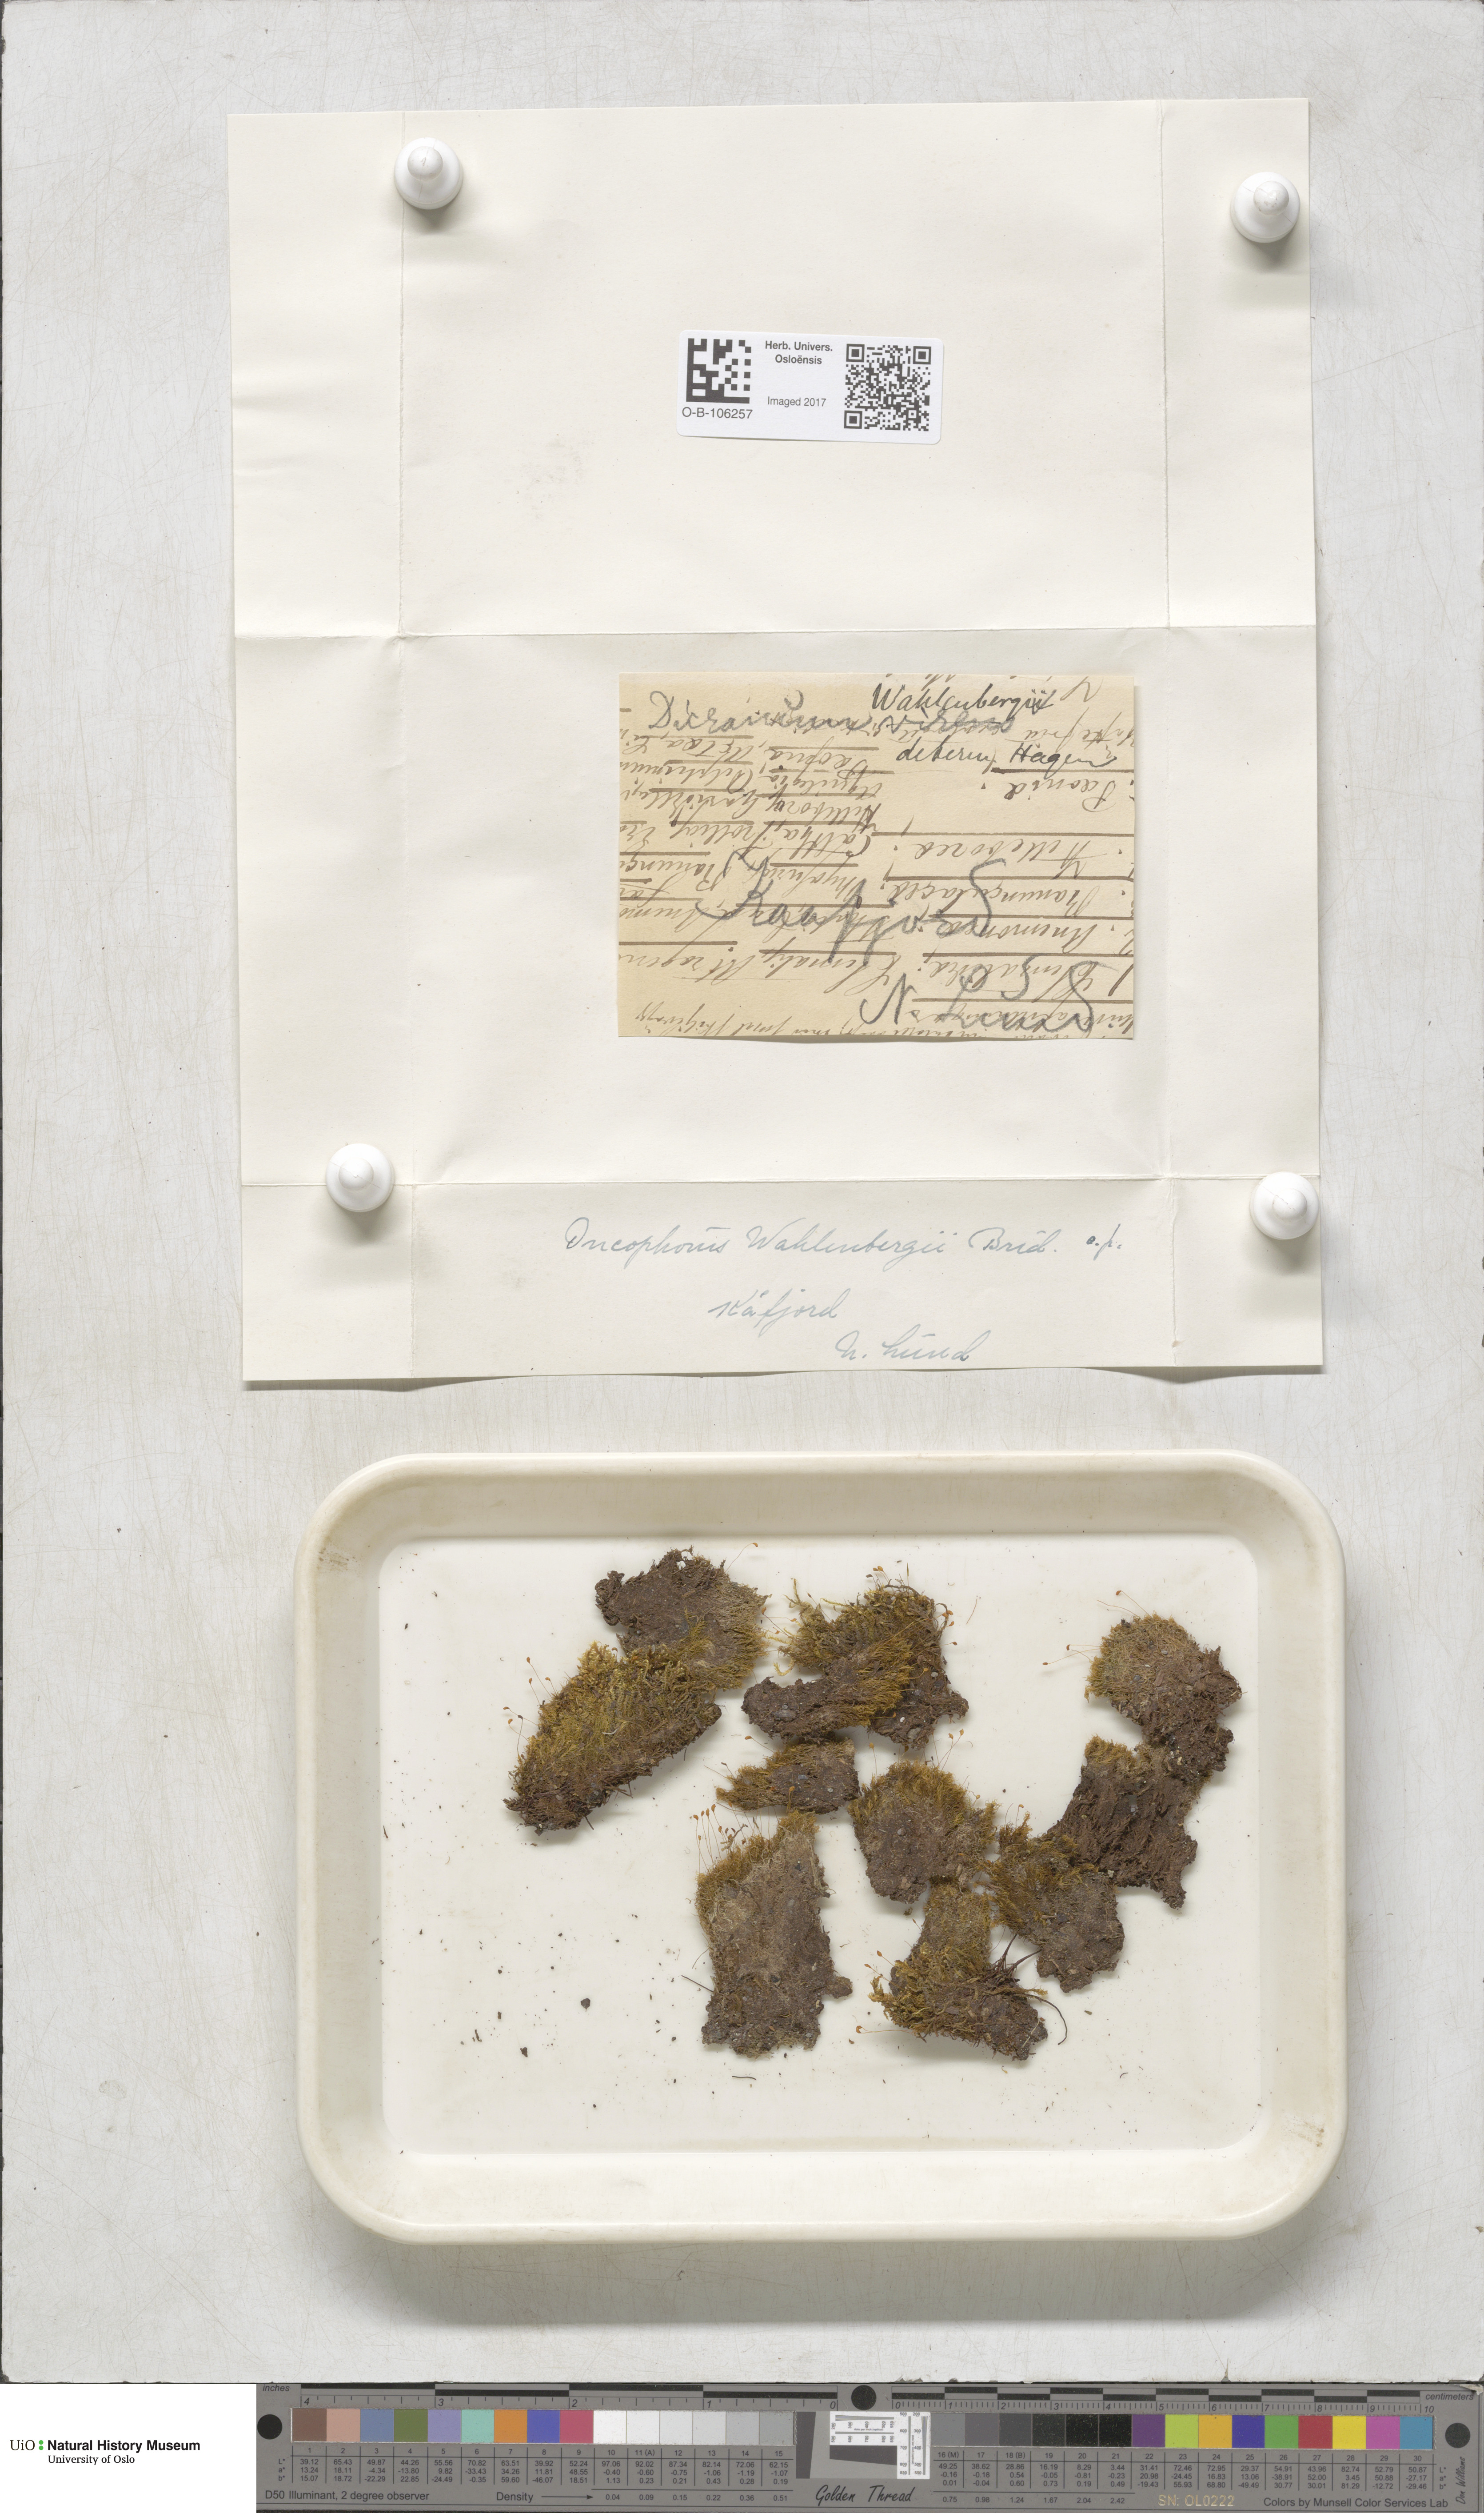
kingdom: Plantae
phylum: Bryophyta
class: Bryopsida
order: Dicranales
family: Rhabdoweisiaceae
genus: Brideliella
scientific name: Brideliella wahlenbergii
